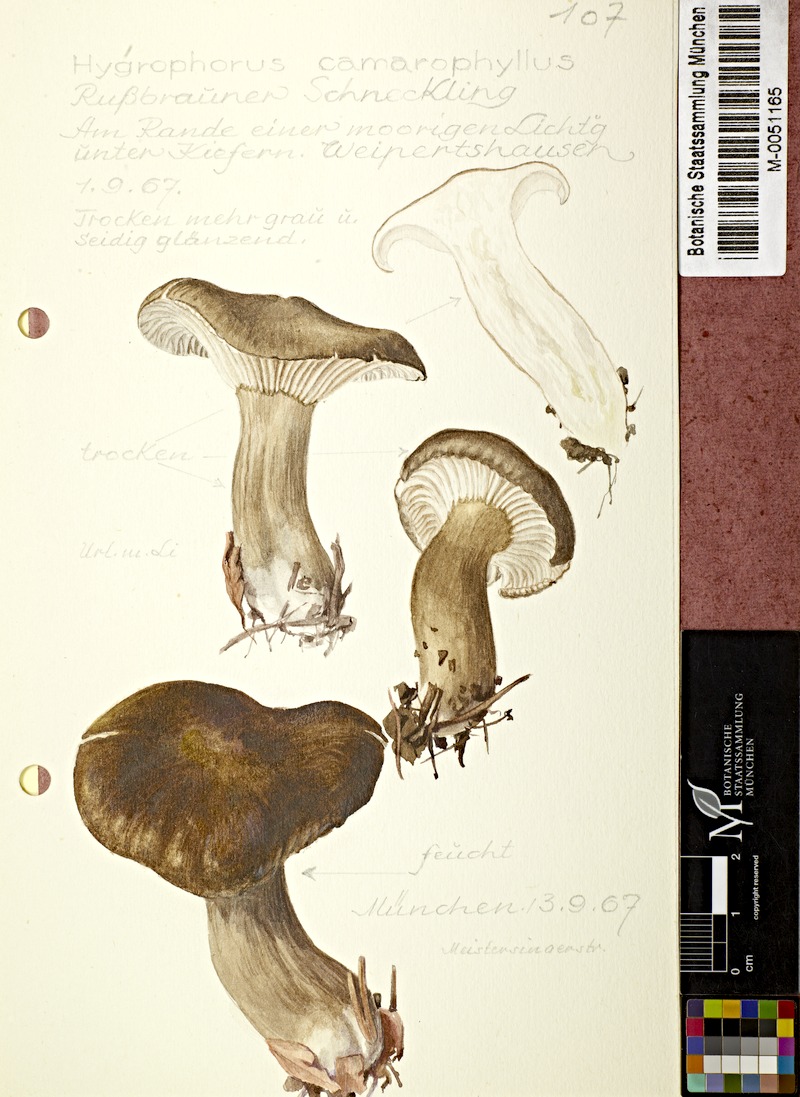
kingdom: Fungi
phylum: Basidiomycota
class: Agaricomycetes
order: Agaricales
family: Hygrophoraceae
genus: Hygrophorus
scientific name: Hygrophorus camarophyllus
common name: Arched woodwax
